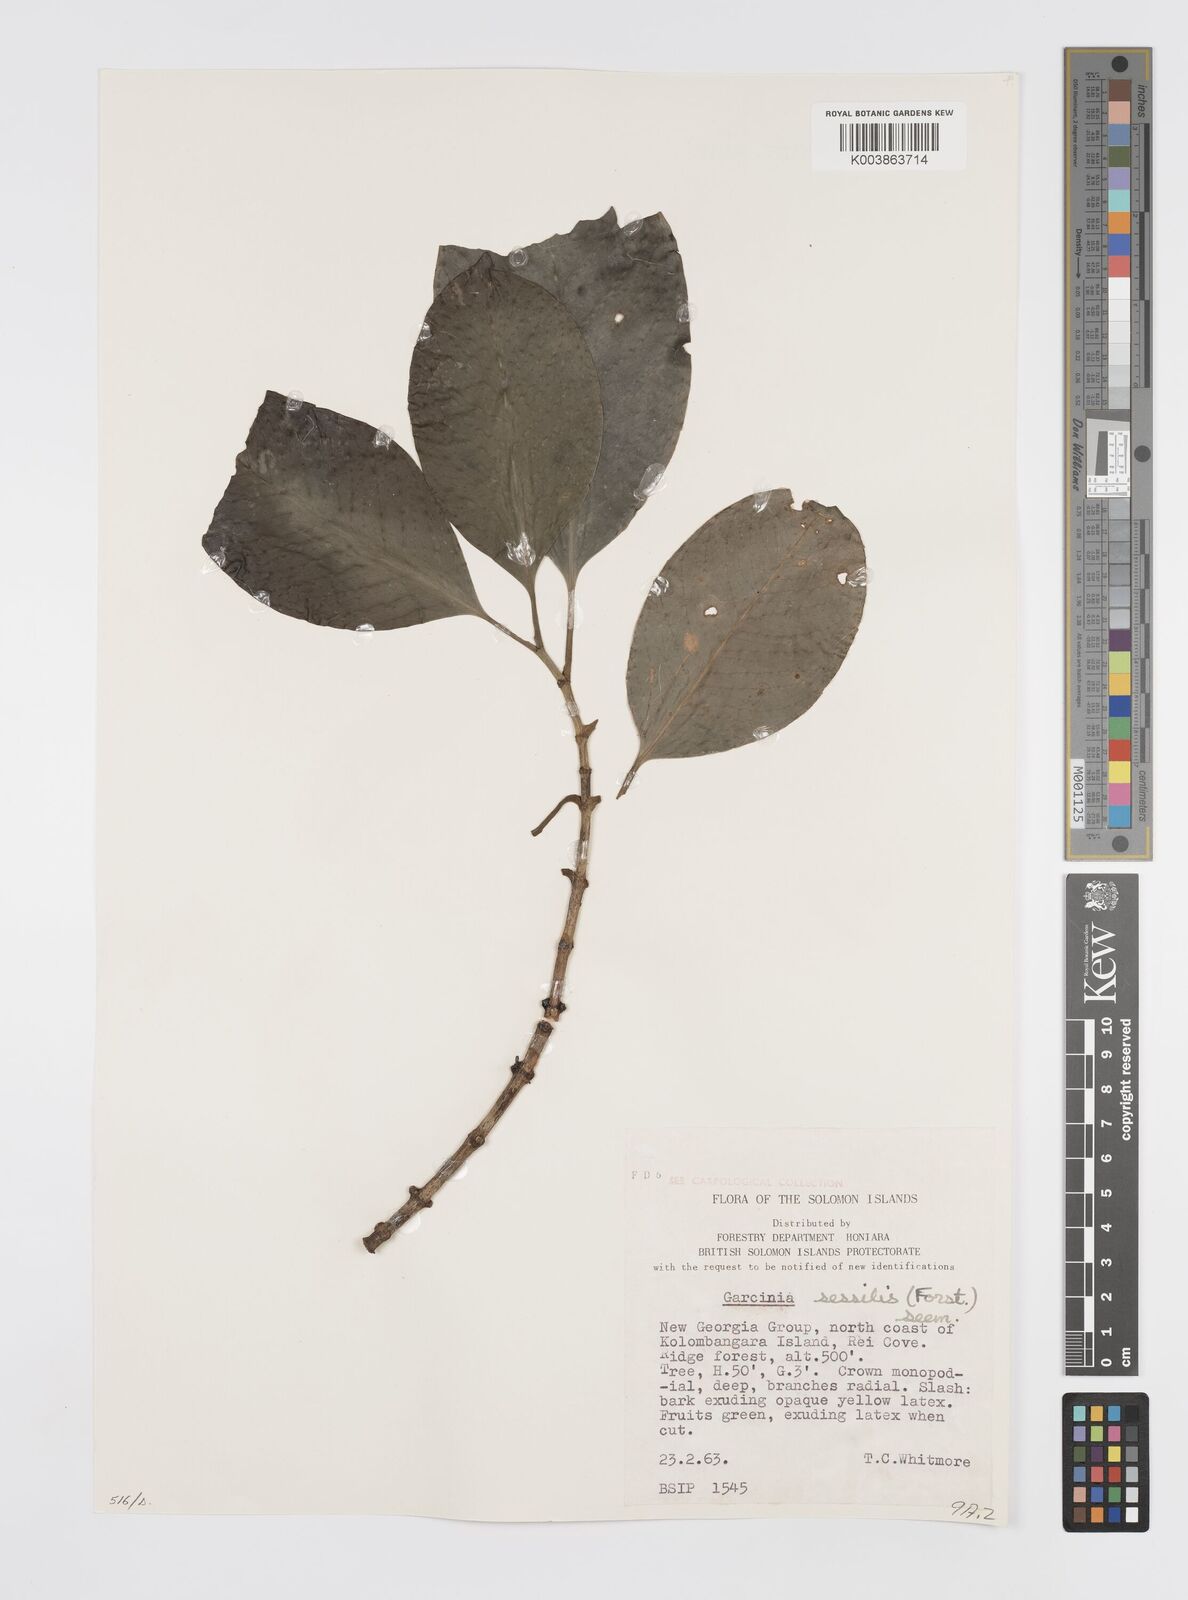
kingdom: Plantae
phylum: Tracheophyta
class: Magnoliopsida
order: Malpighiales
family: Clusiaceae
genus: Garcinia
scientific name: Garcinia sessilis
